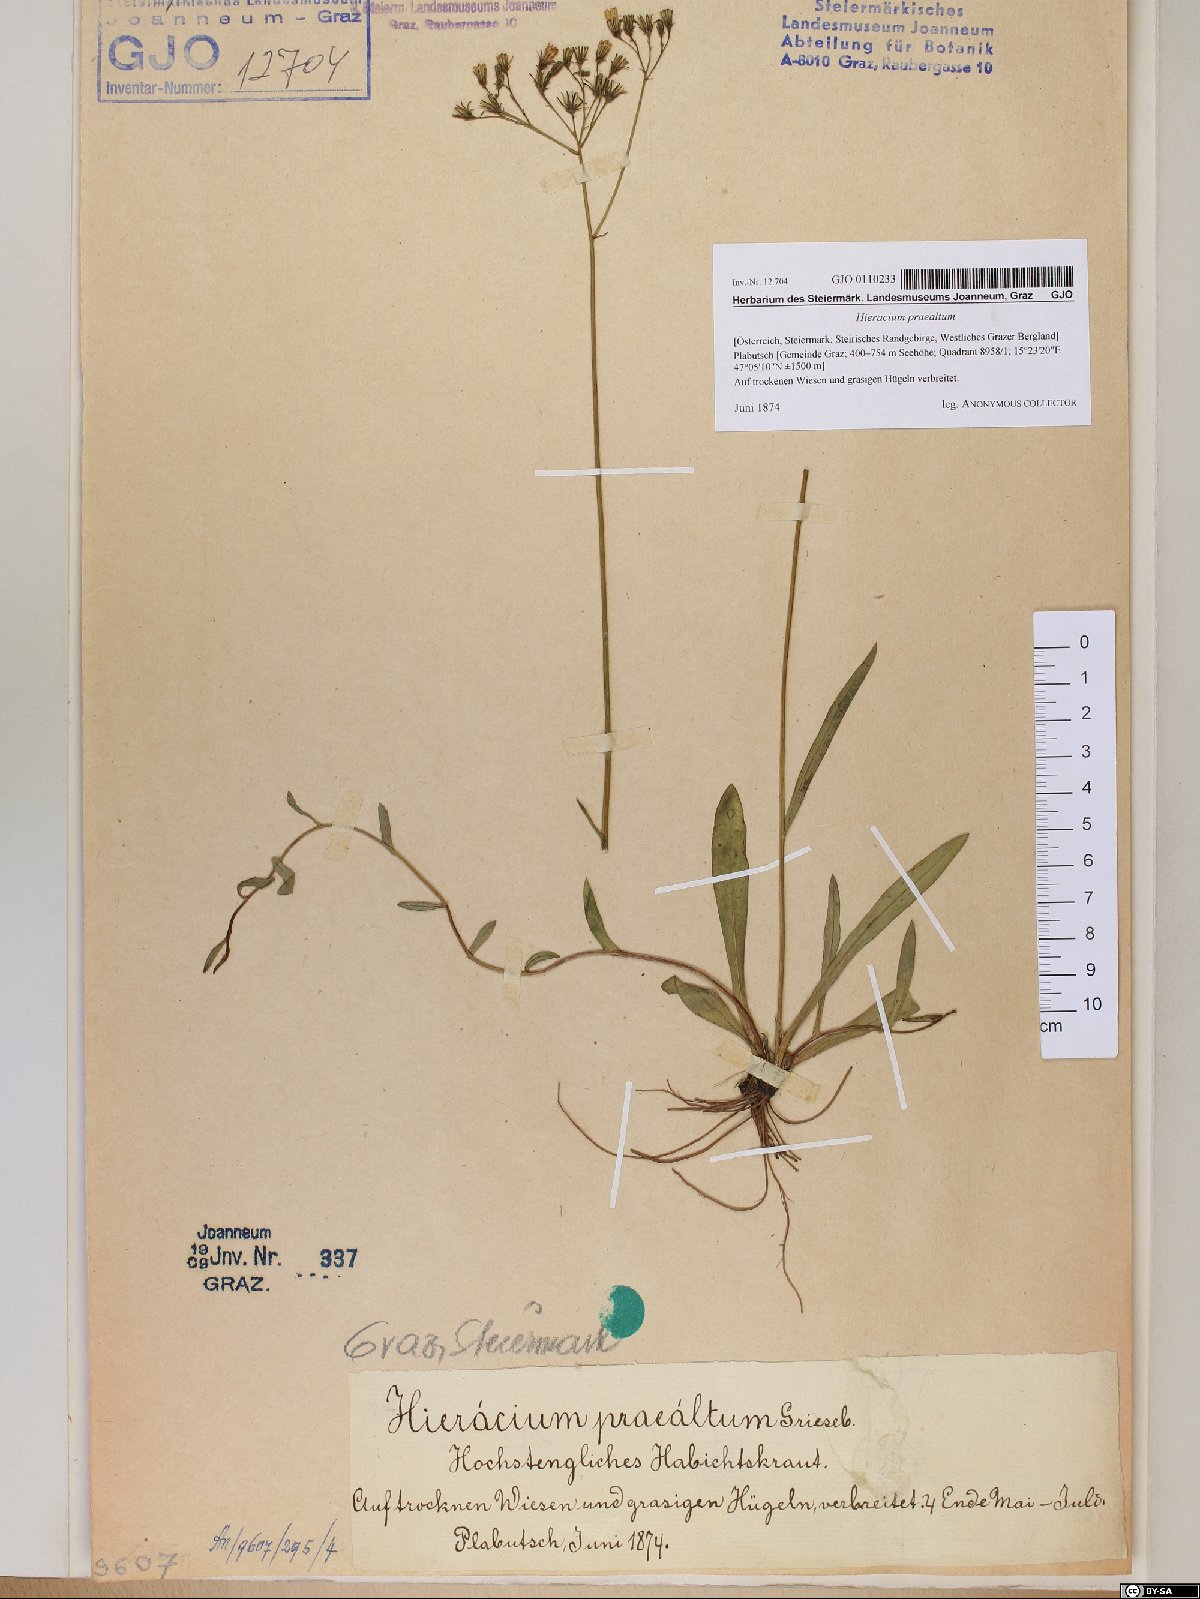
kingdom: Plantae
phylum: Tracheophyta
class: Magnoliopsida
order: Asterales
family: Asteraceae
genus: Pilosella
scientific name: Pilosella piloselloides
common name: Glaucous king-devil
